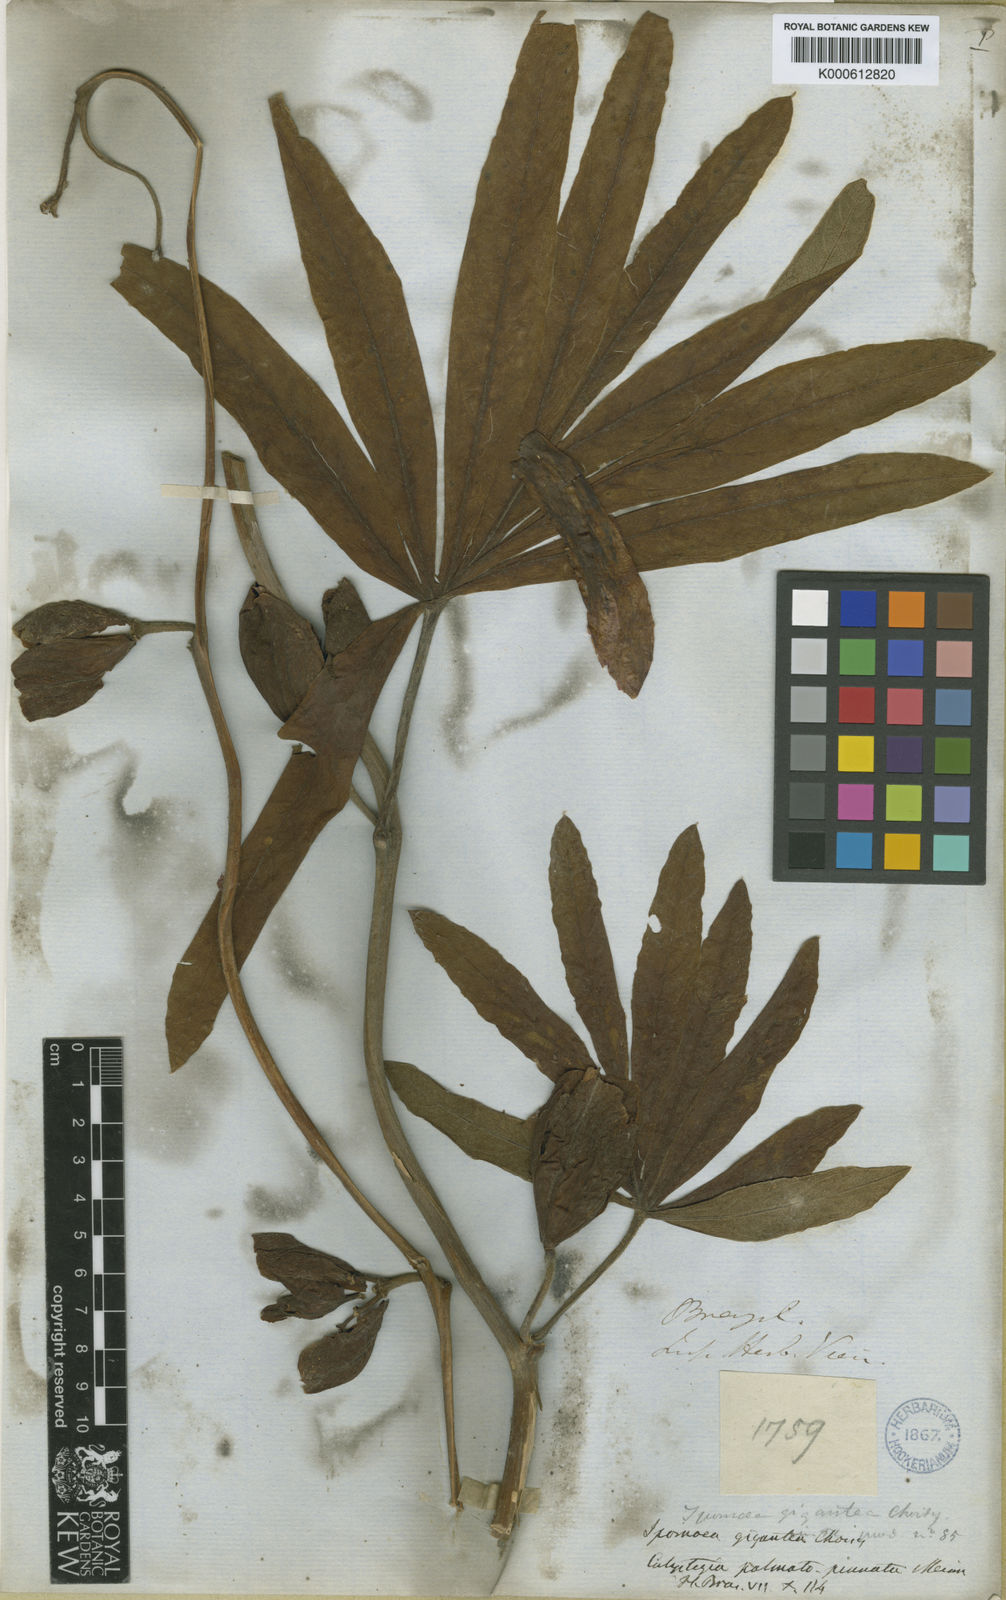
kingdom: Plantae
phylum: Tracheophyta
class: Magnoliopsida
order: Solanales
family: Convolvulaceae
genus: Ipomoea
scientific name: Ipomoea gigantea
